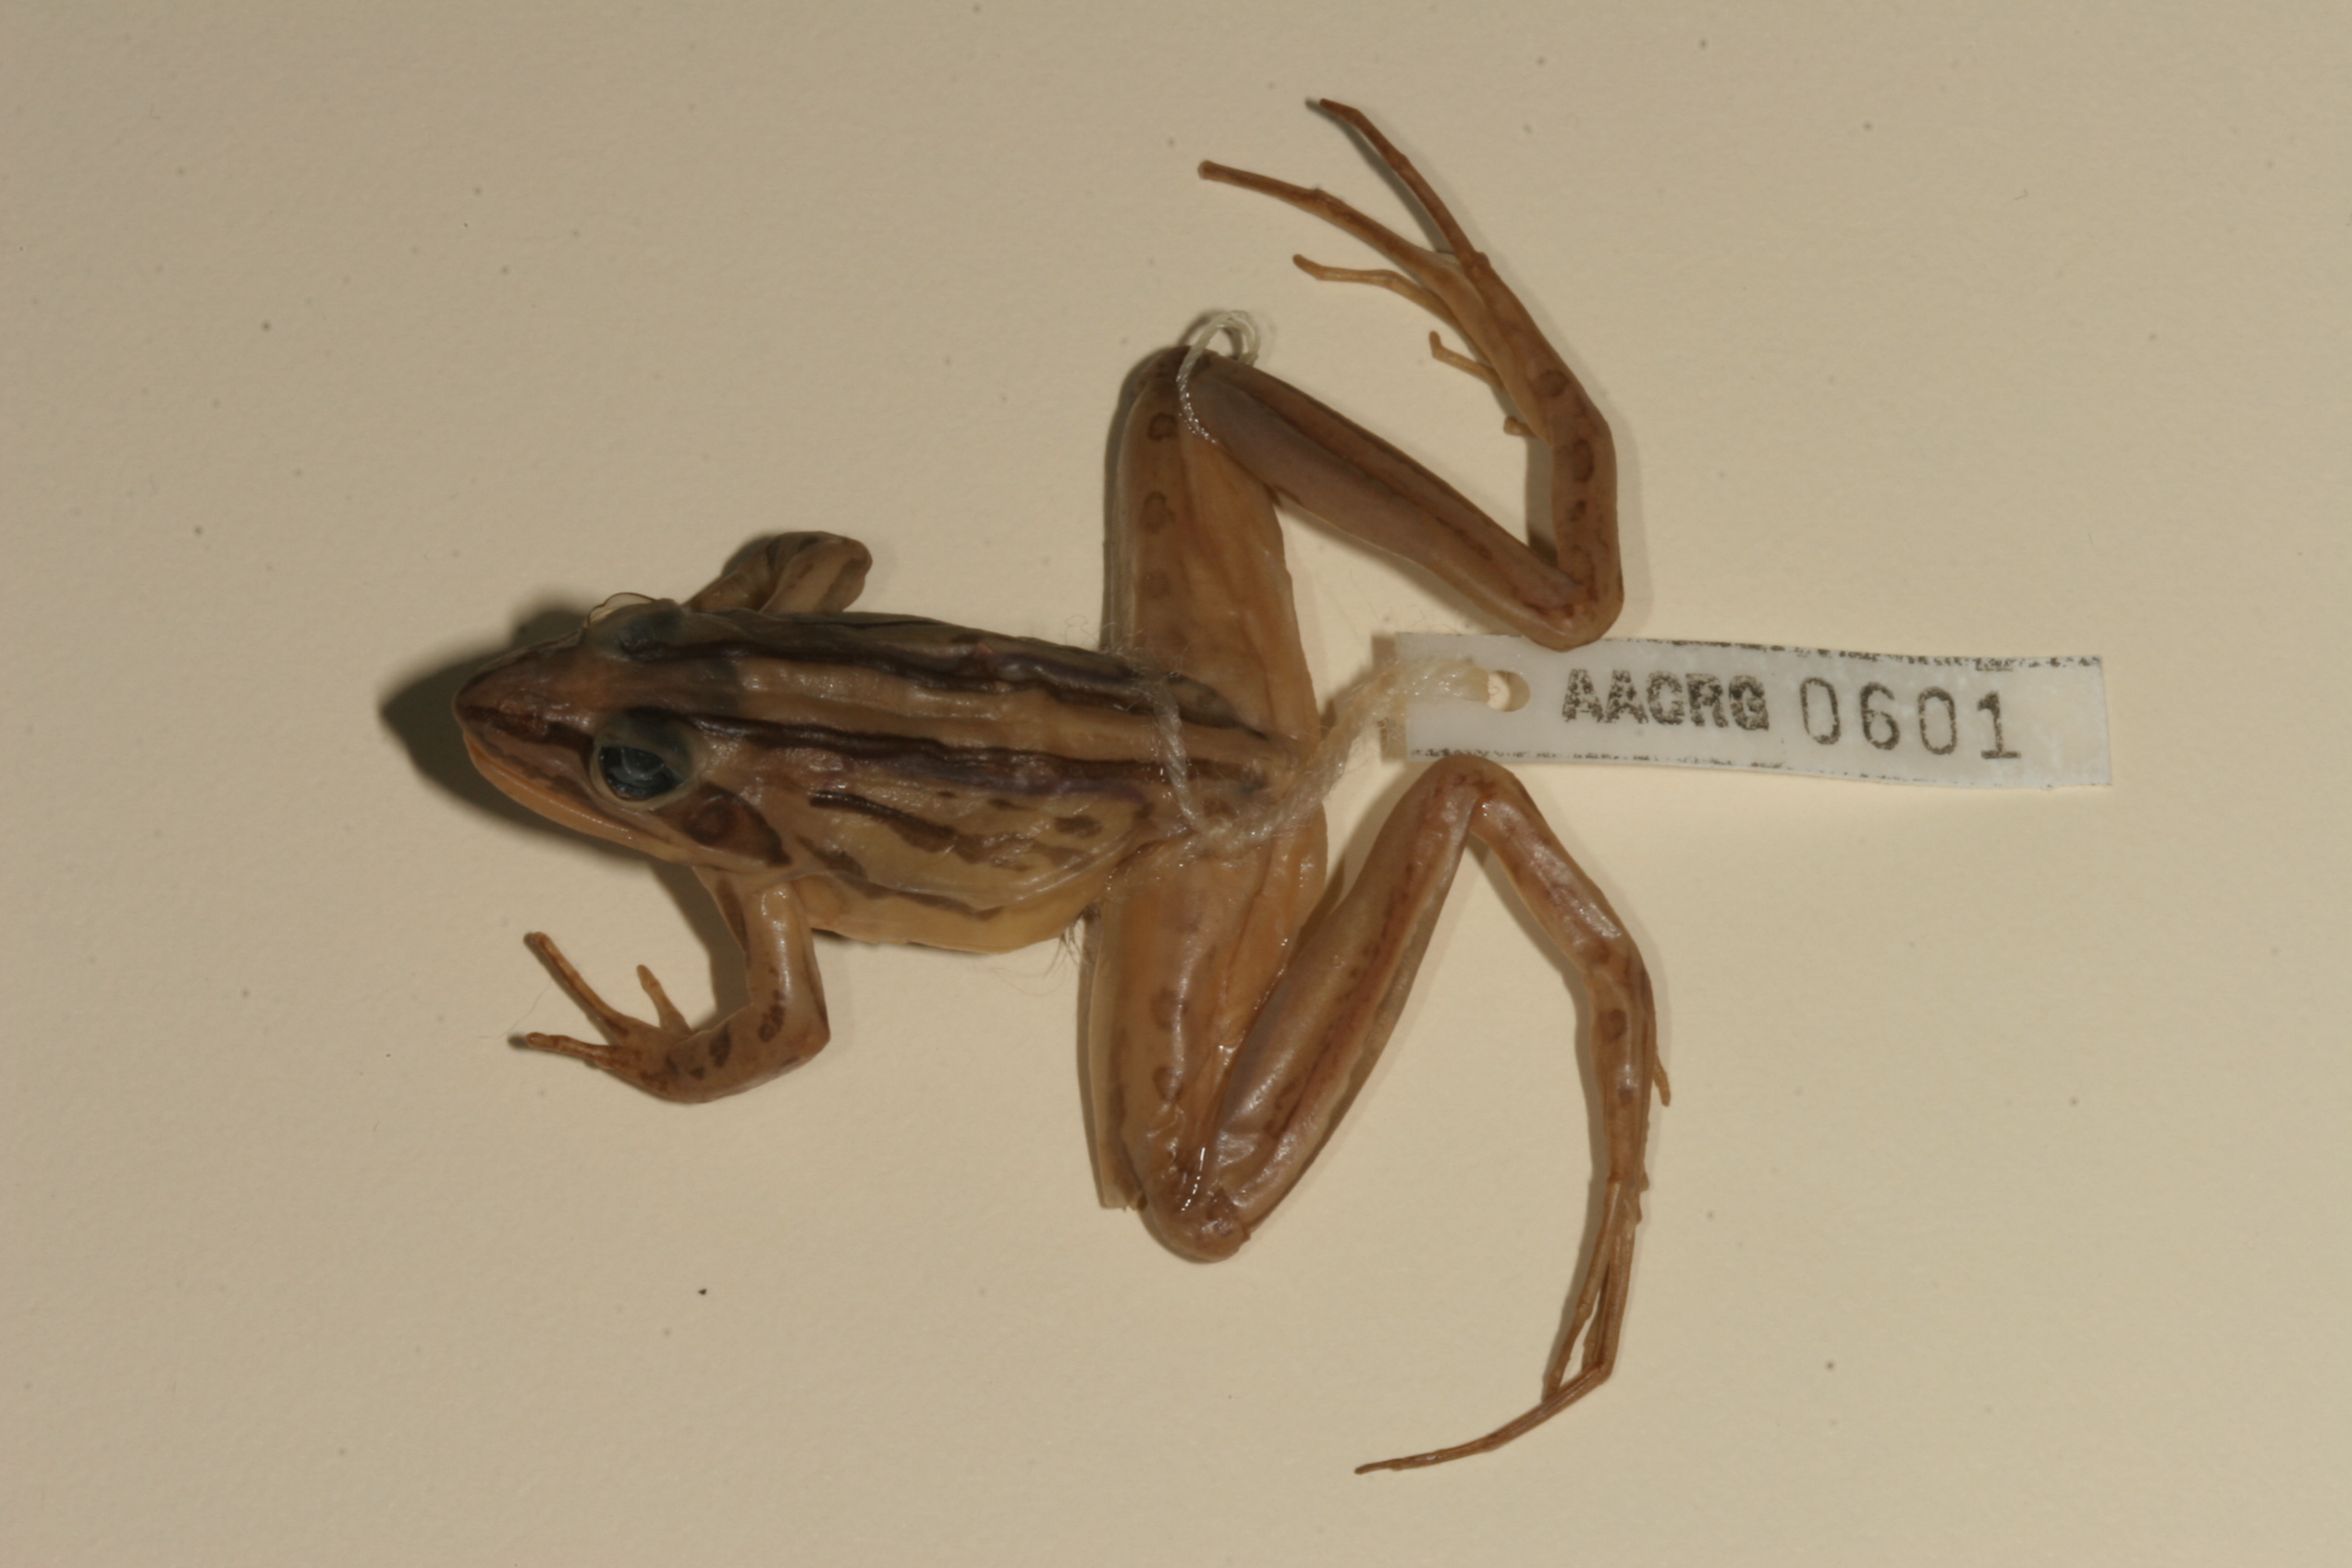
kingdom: Animalia
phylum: Chordata
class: Amphibia
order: Anura
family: Pyxicephalidae
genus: Strongylopus
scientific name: Strongylopus fasciatus
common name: Striped stream frog
